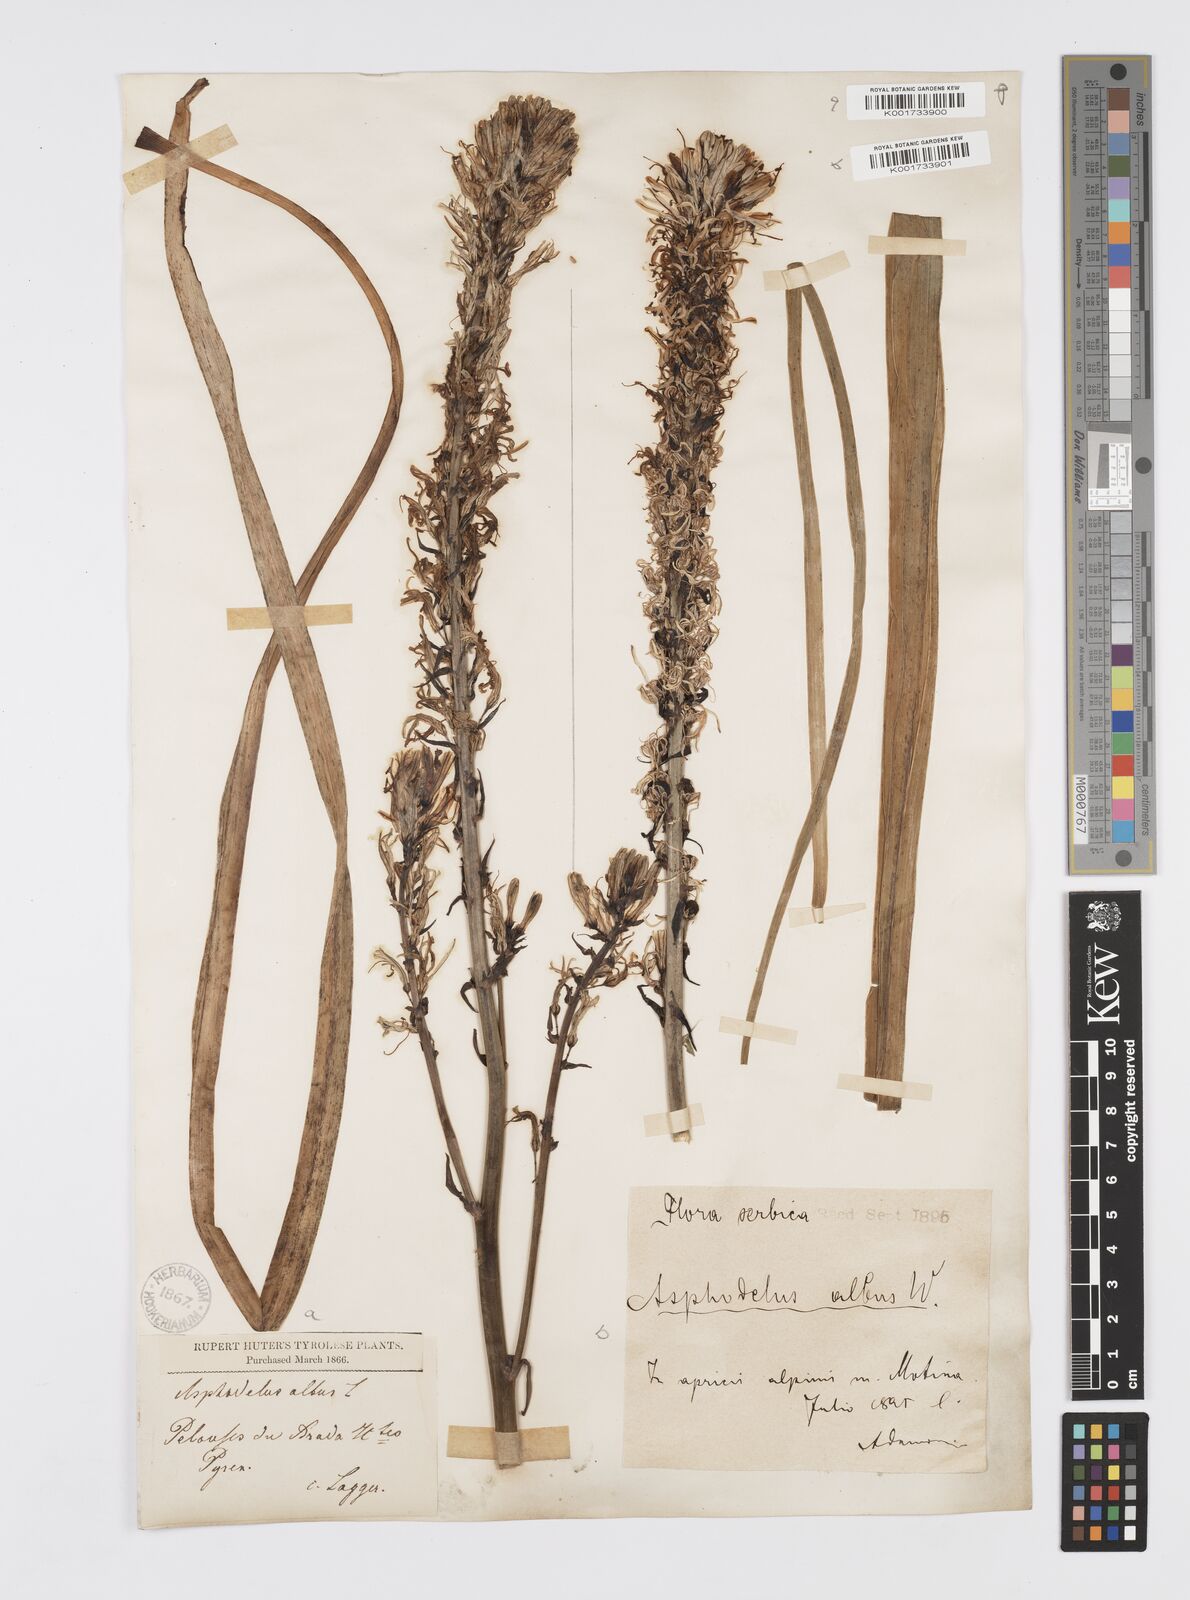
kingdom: Plantae
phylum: Tracheophyta
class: Liliopsida
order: Asparagales
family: Asphodelaceae
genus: Asphodelus
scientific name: Asphodelus albus
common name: White asphodel
